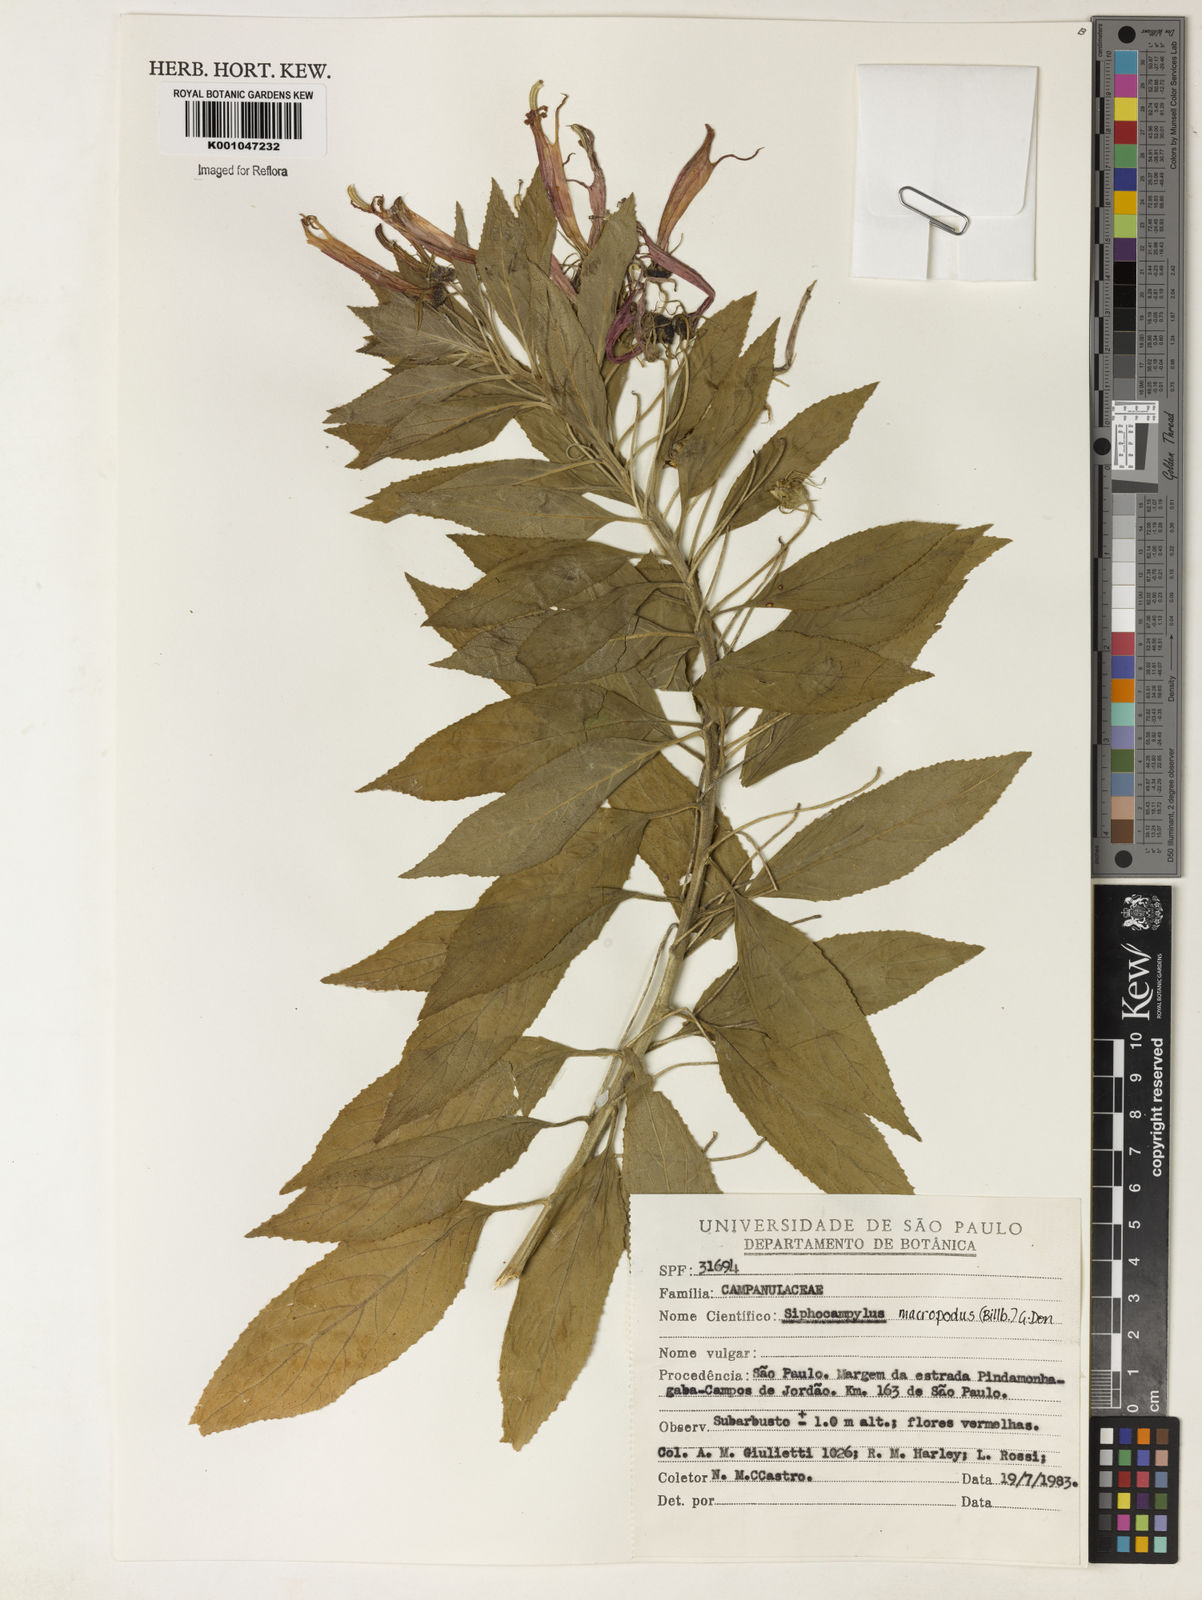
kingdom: Plantae
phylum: Tracheophyta
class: Magnoliopsida
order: Asterales
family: Campanulaceae
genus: Siphocampylus
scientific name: Siphocampylus macropodus
